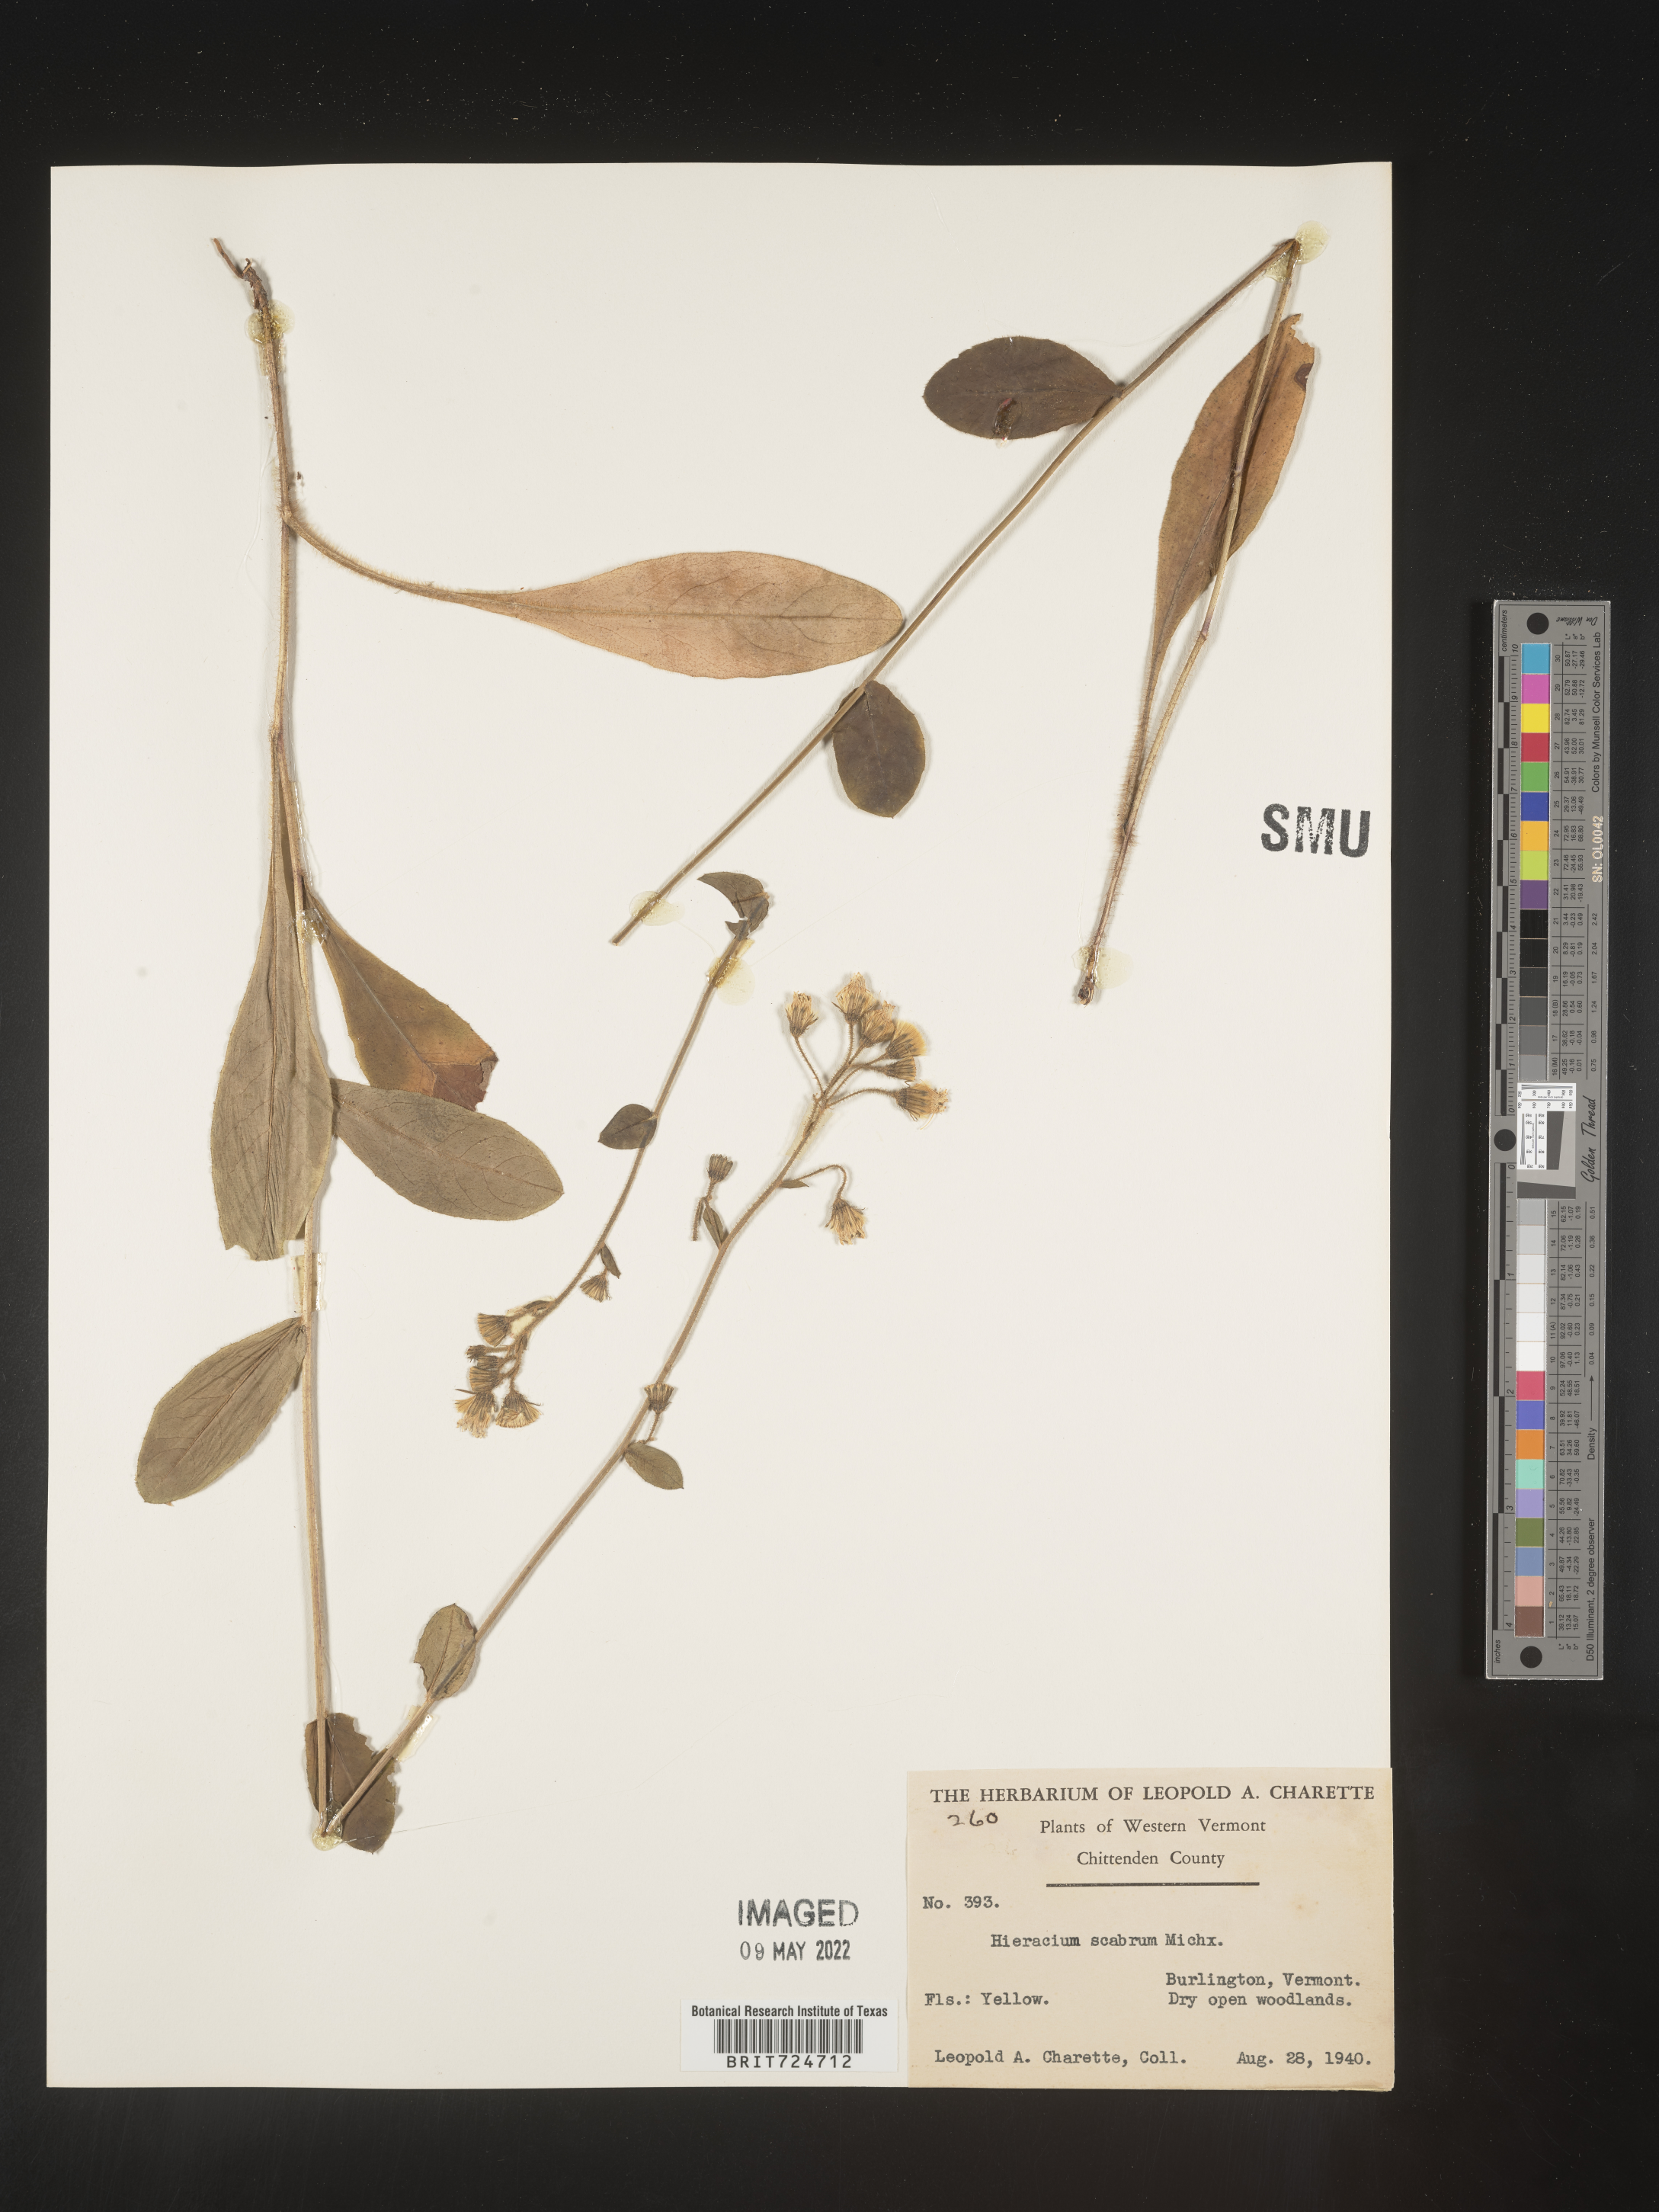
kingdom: Plantae
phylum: Tracheophyta
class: Magnoliopsida
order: Asterales
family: Asteraceae
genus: Hieracium
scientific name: Hieracium scabrum
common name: Rough hawkweed
